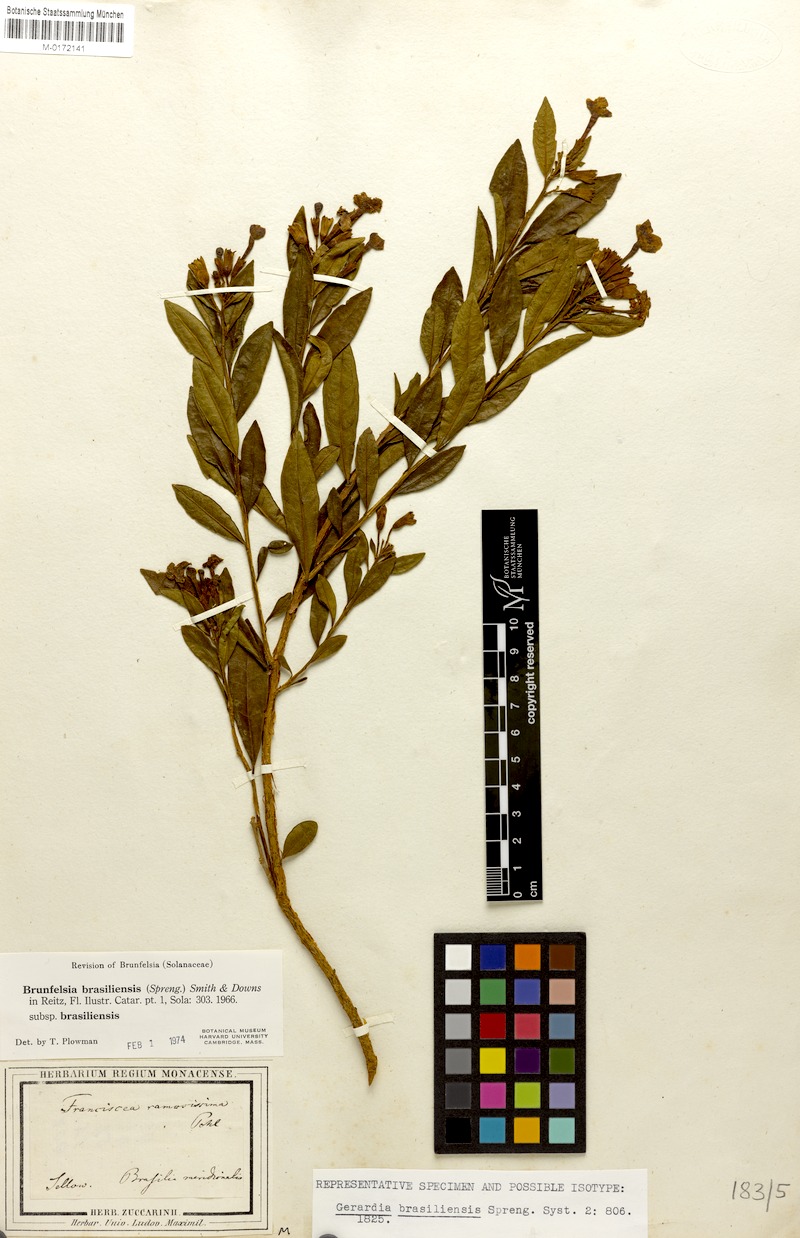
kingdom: Plantae
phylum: Tracheophyta
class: Magnoliopsida
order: Solanales
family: Solanaceae
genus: Brunfelsia
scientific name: Brunfelsia brasiliensis
